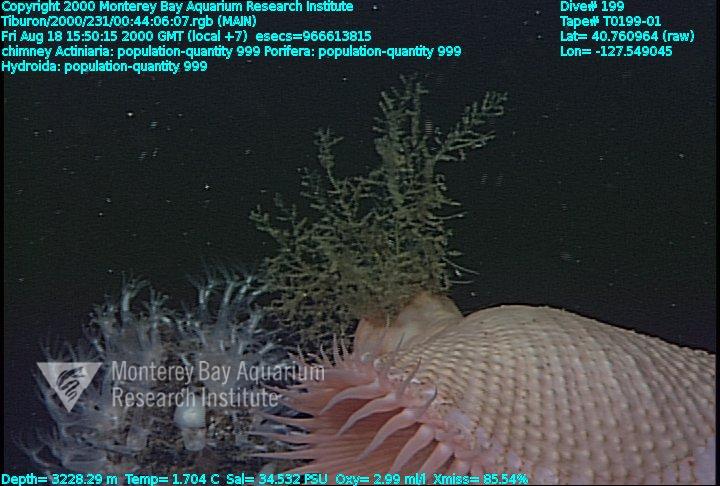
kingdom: Animalia
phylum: Porifera
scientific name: Porifera
